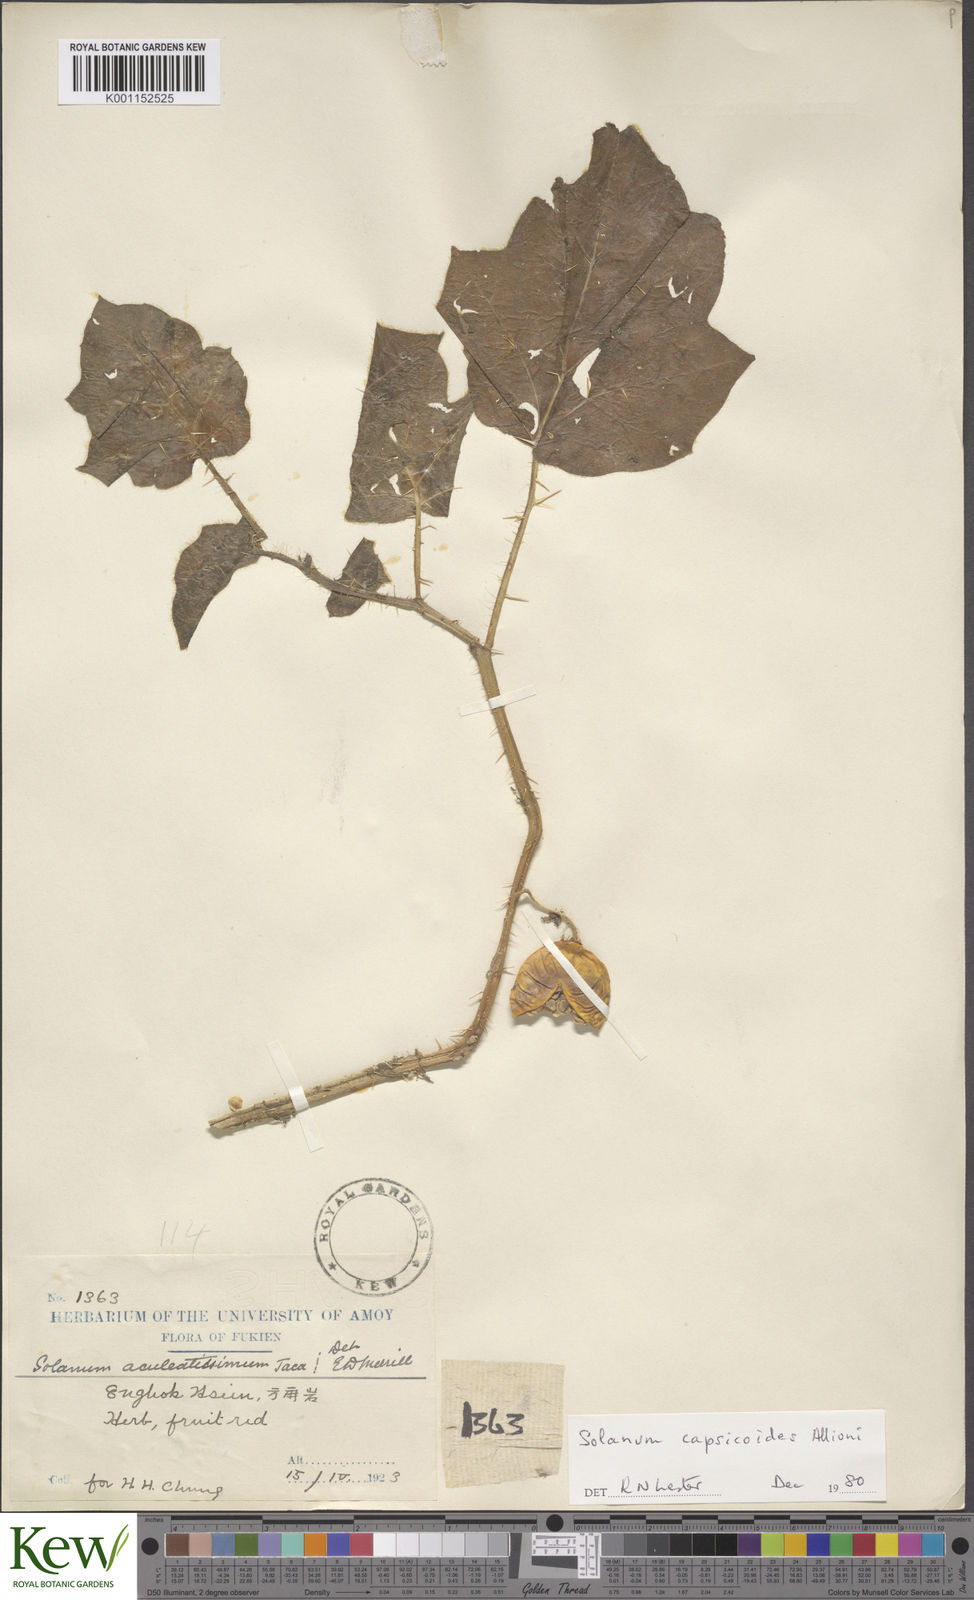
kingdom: Plantae
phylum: Tracheophyta
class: Magnoliopsida
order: Solanales
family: Solanaceae
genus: Solanum
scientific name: Solanum capsicoides
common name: Cockroach berry
